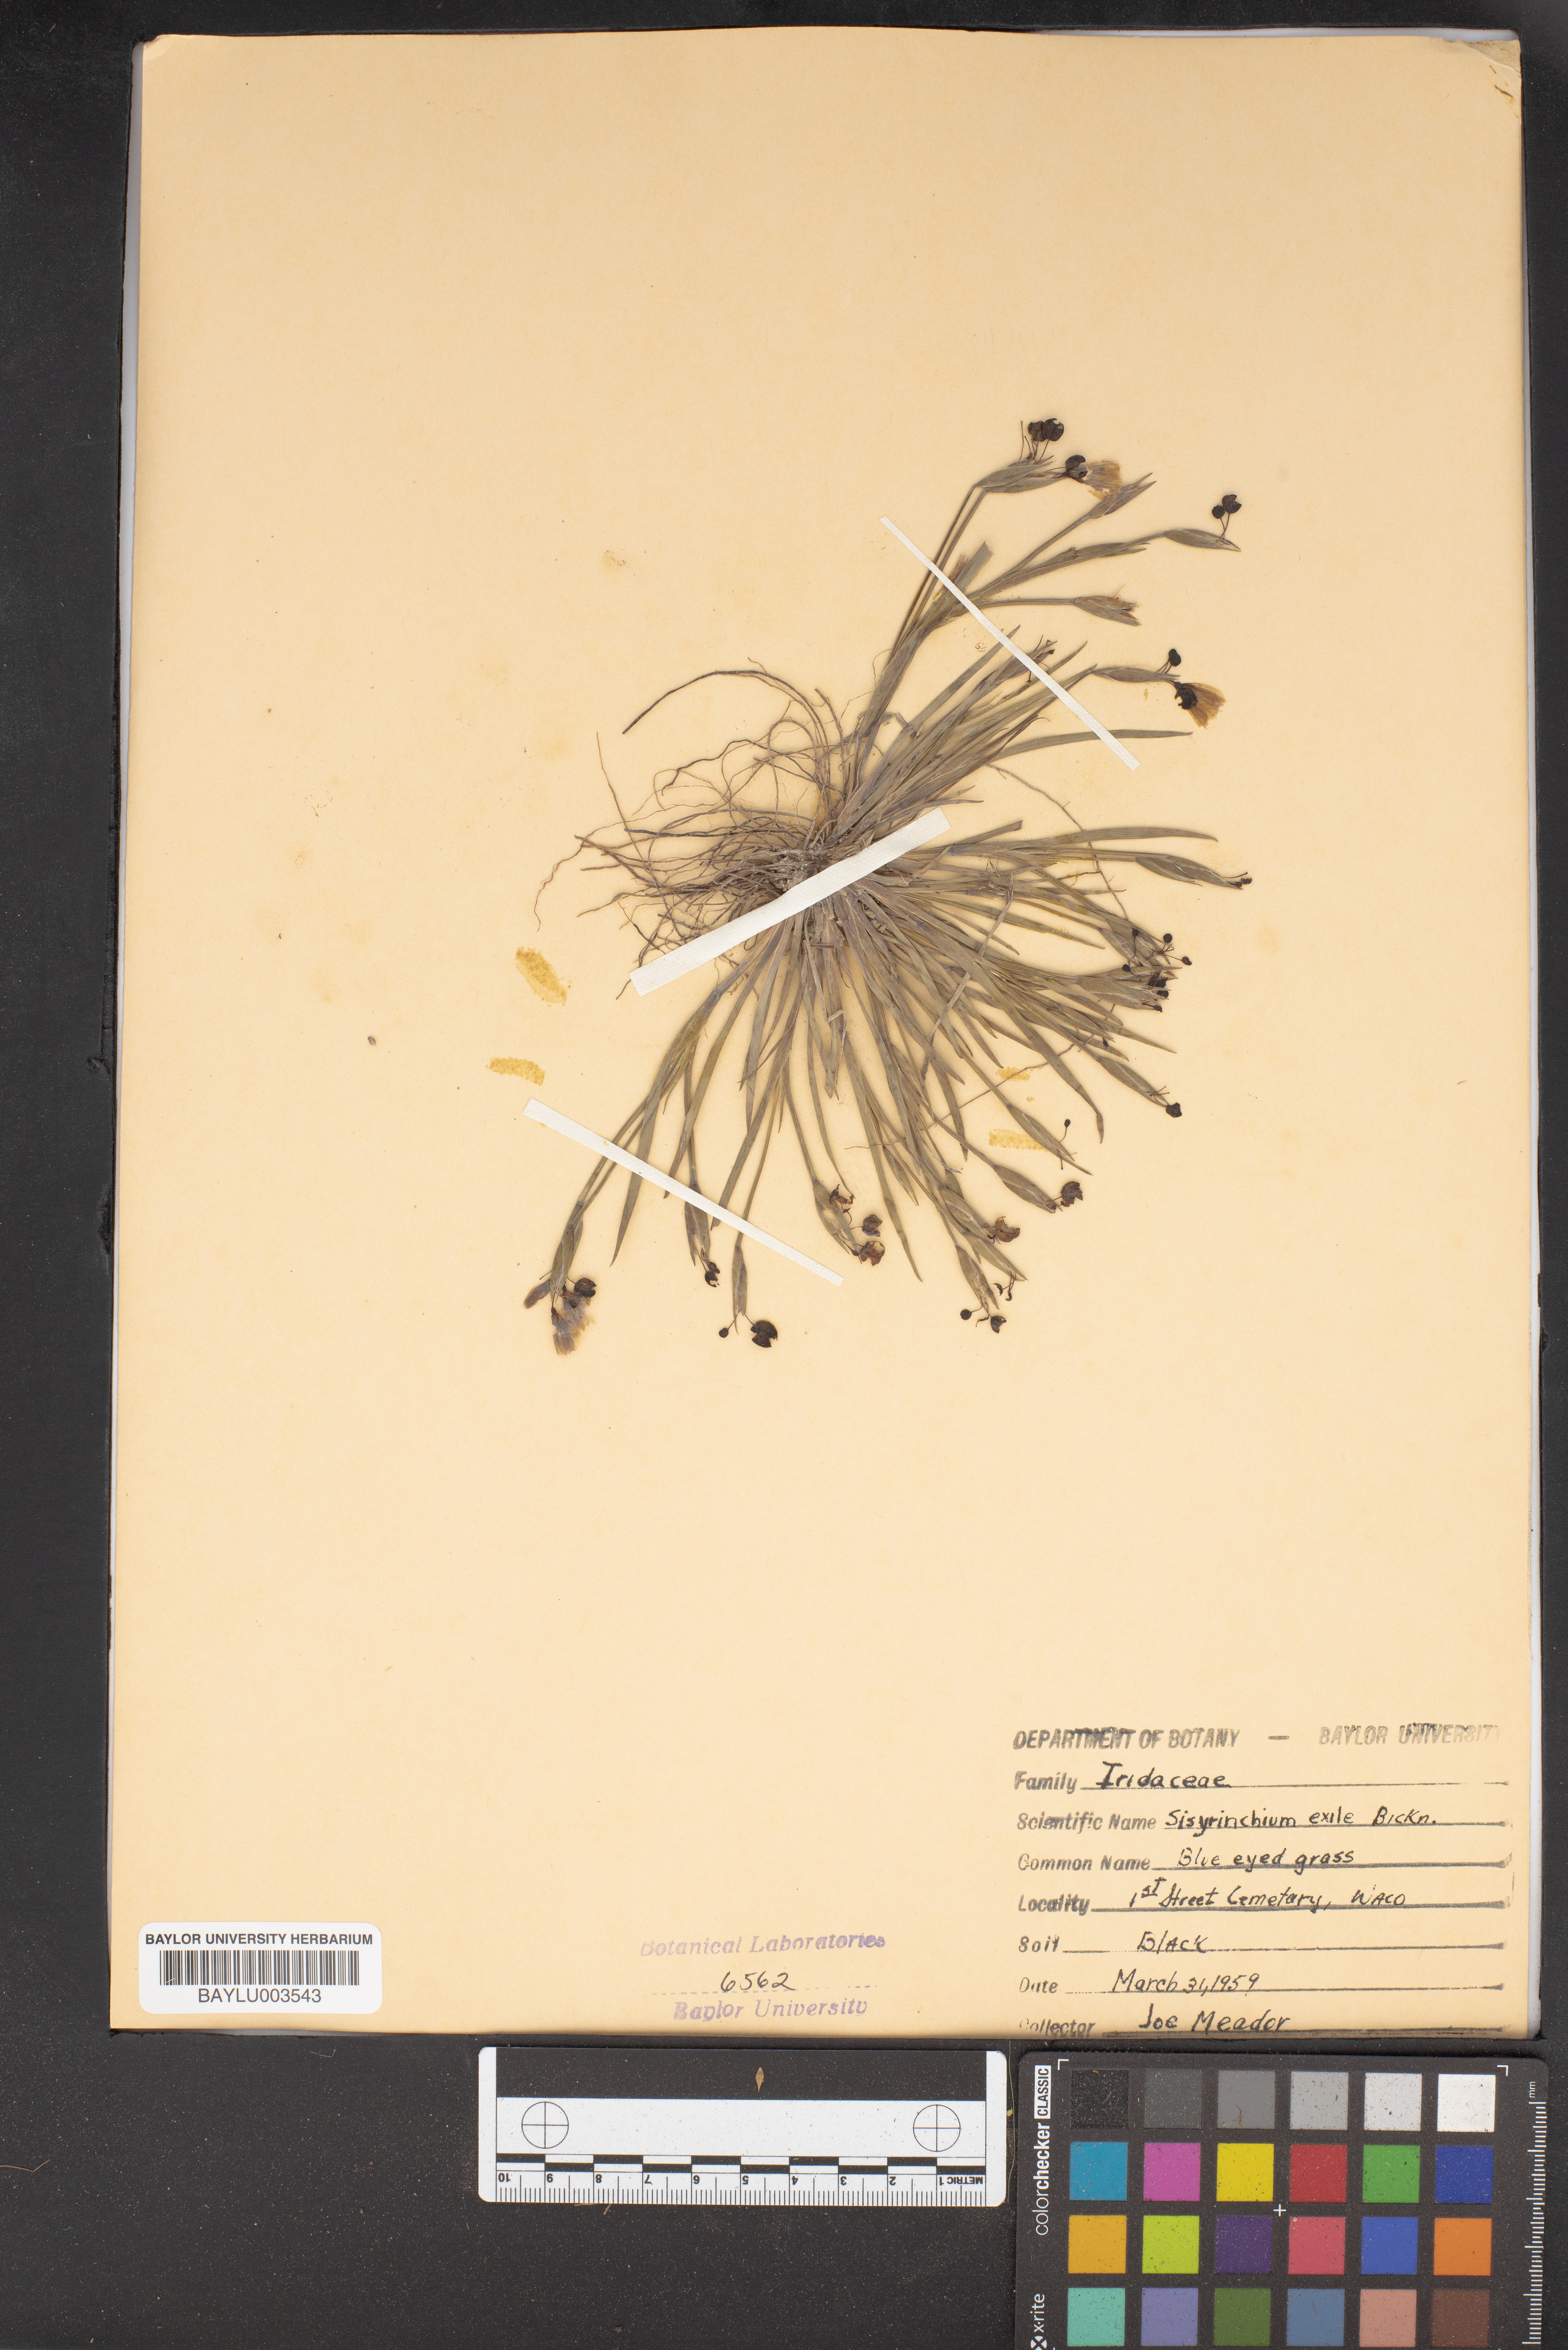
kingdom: Plantae
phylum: Tracheophyta
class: Liliopsida
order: Asparagales
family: Iridaceae
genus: Sisyrinchium
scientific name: Sisyrinchium rosulatum
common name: Annual blue-eyed grass
